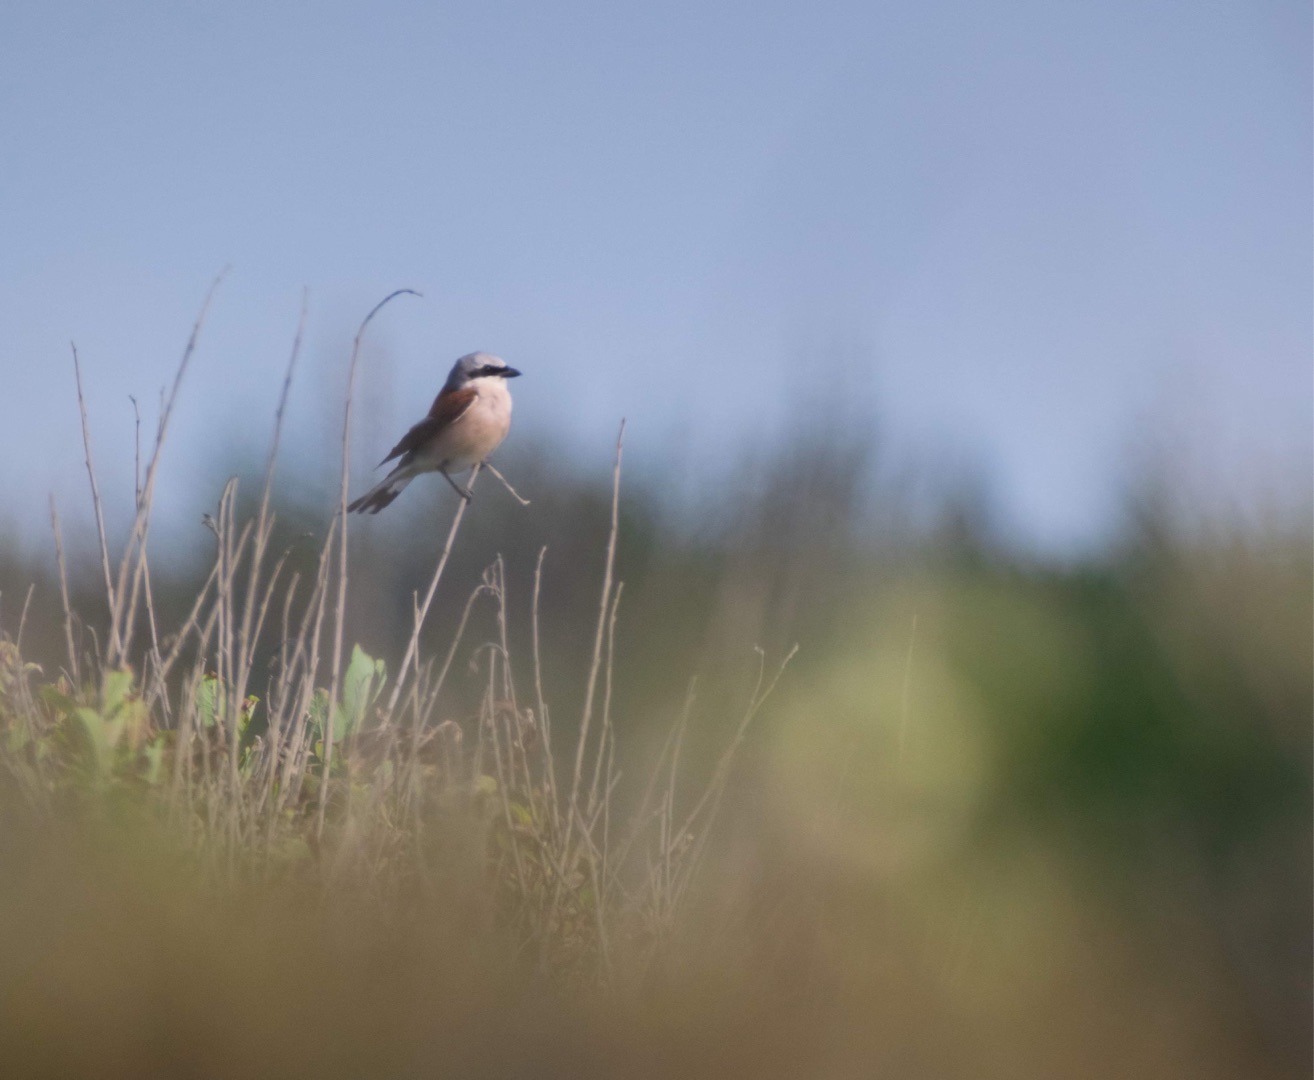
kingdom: Animalia
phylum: Chordata
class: Aves
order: Passeriformes
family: Laniidae
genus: Lanius
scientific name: Lanius collurio
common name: Rødrygget tornskade
